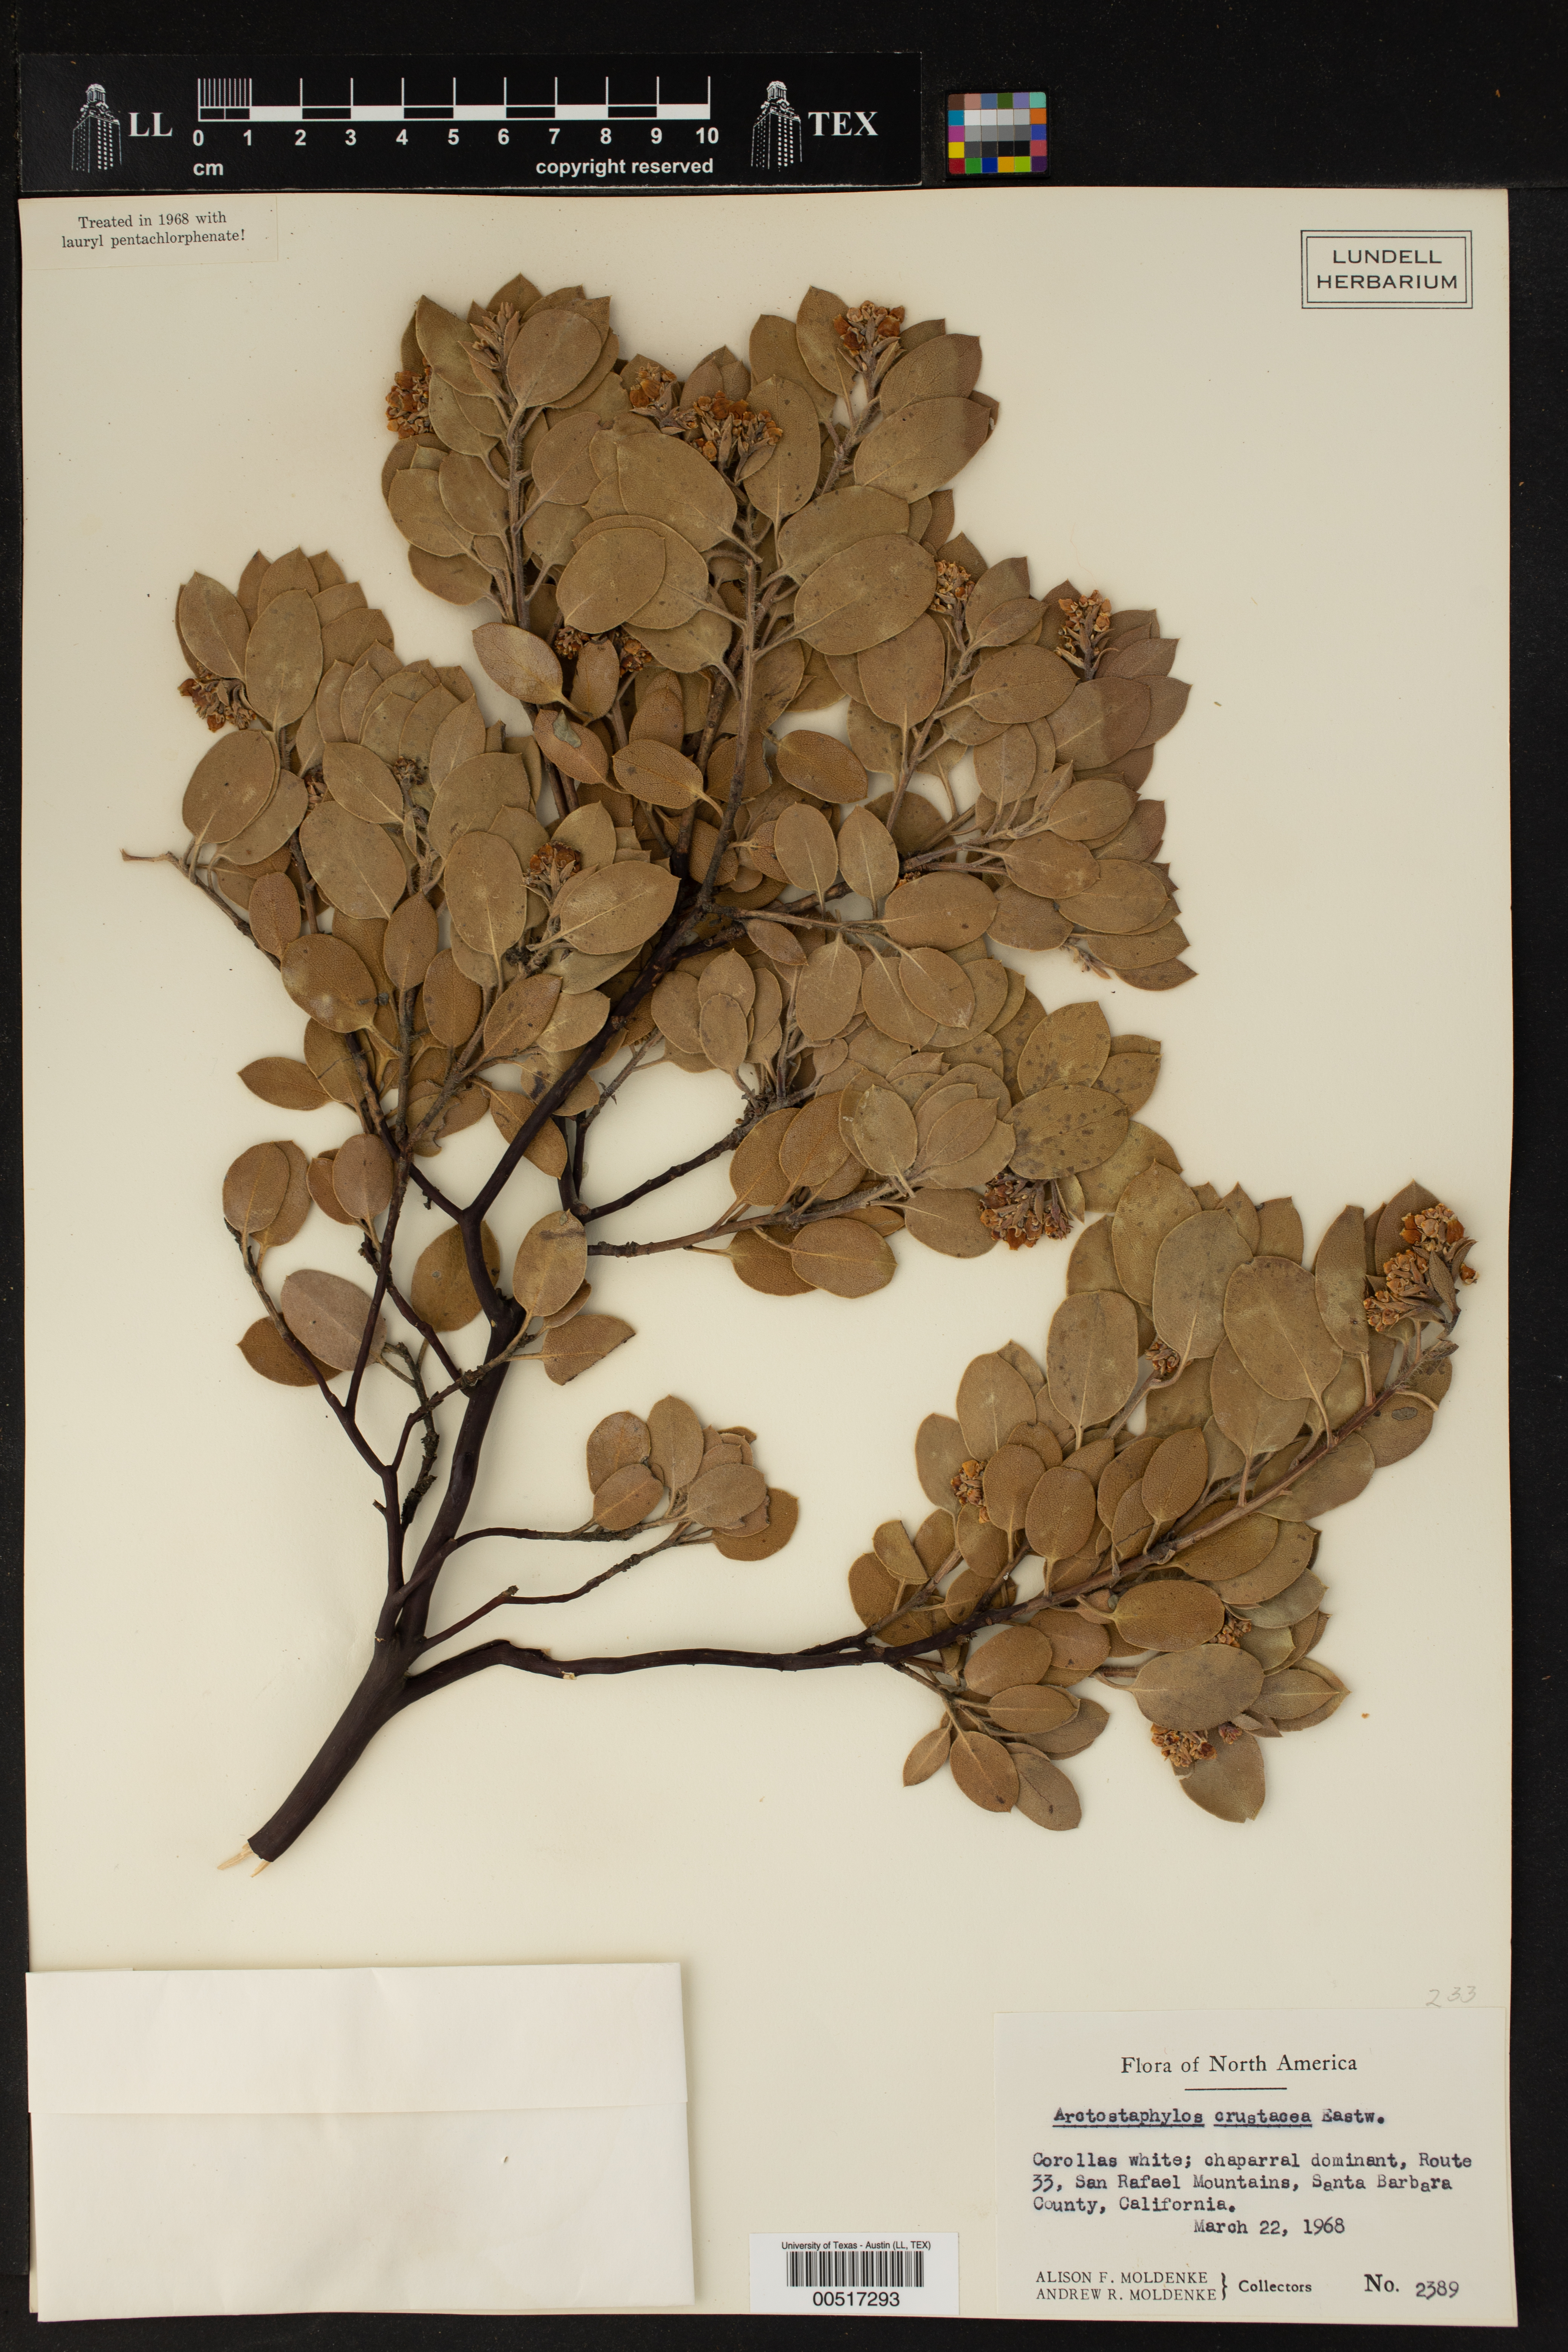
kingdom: Plantae
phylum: Tracheophyta
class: Magnoliopsida
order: Ericales
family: Ericaceae
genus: Arctostaphylos
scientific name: Arctostaphylos crustacea
